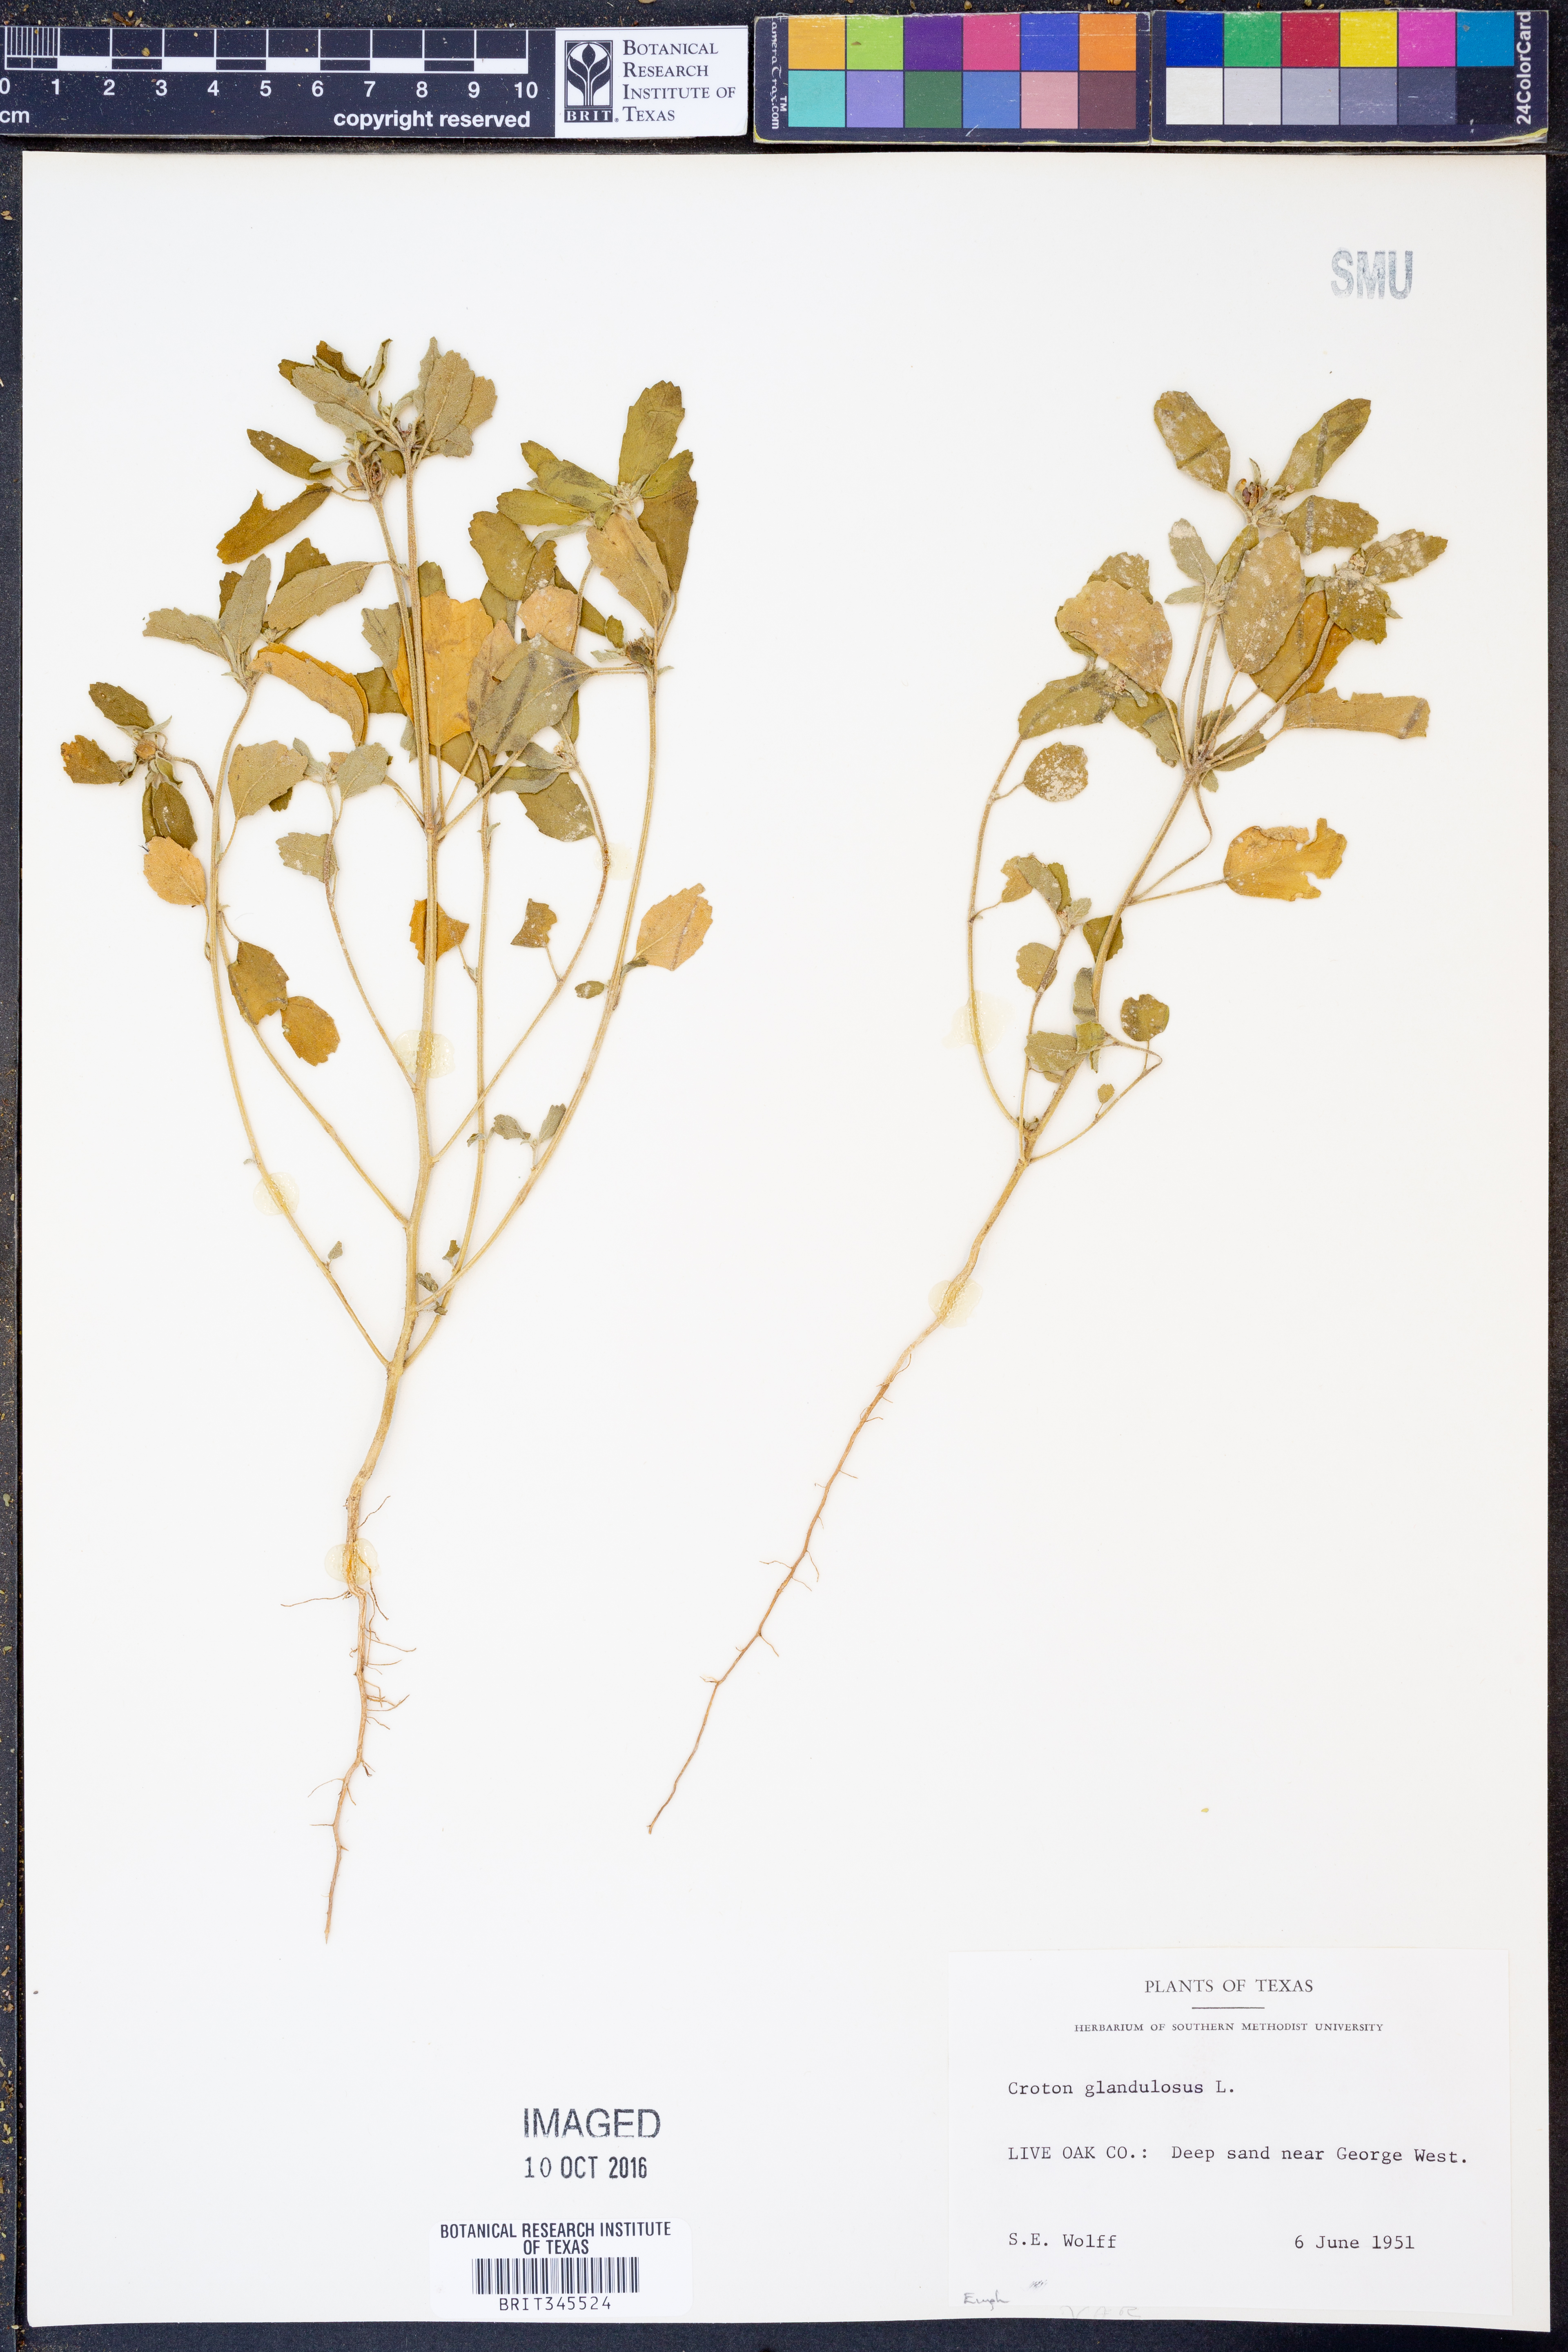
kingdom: Plantae
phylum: Tracheophyta
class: Magnoliopsida
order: Malpighiales
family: Euphorbiaceae
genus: Croton
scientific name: Croton glandulosus
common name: Tropic croton
